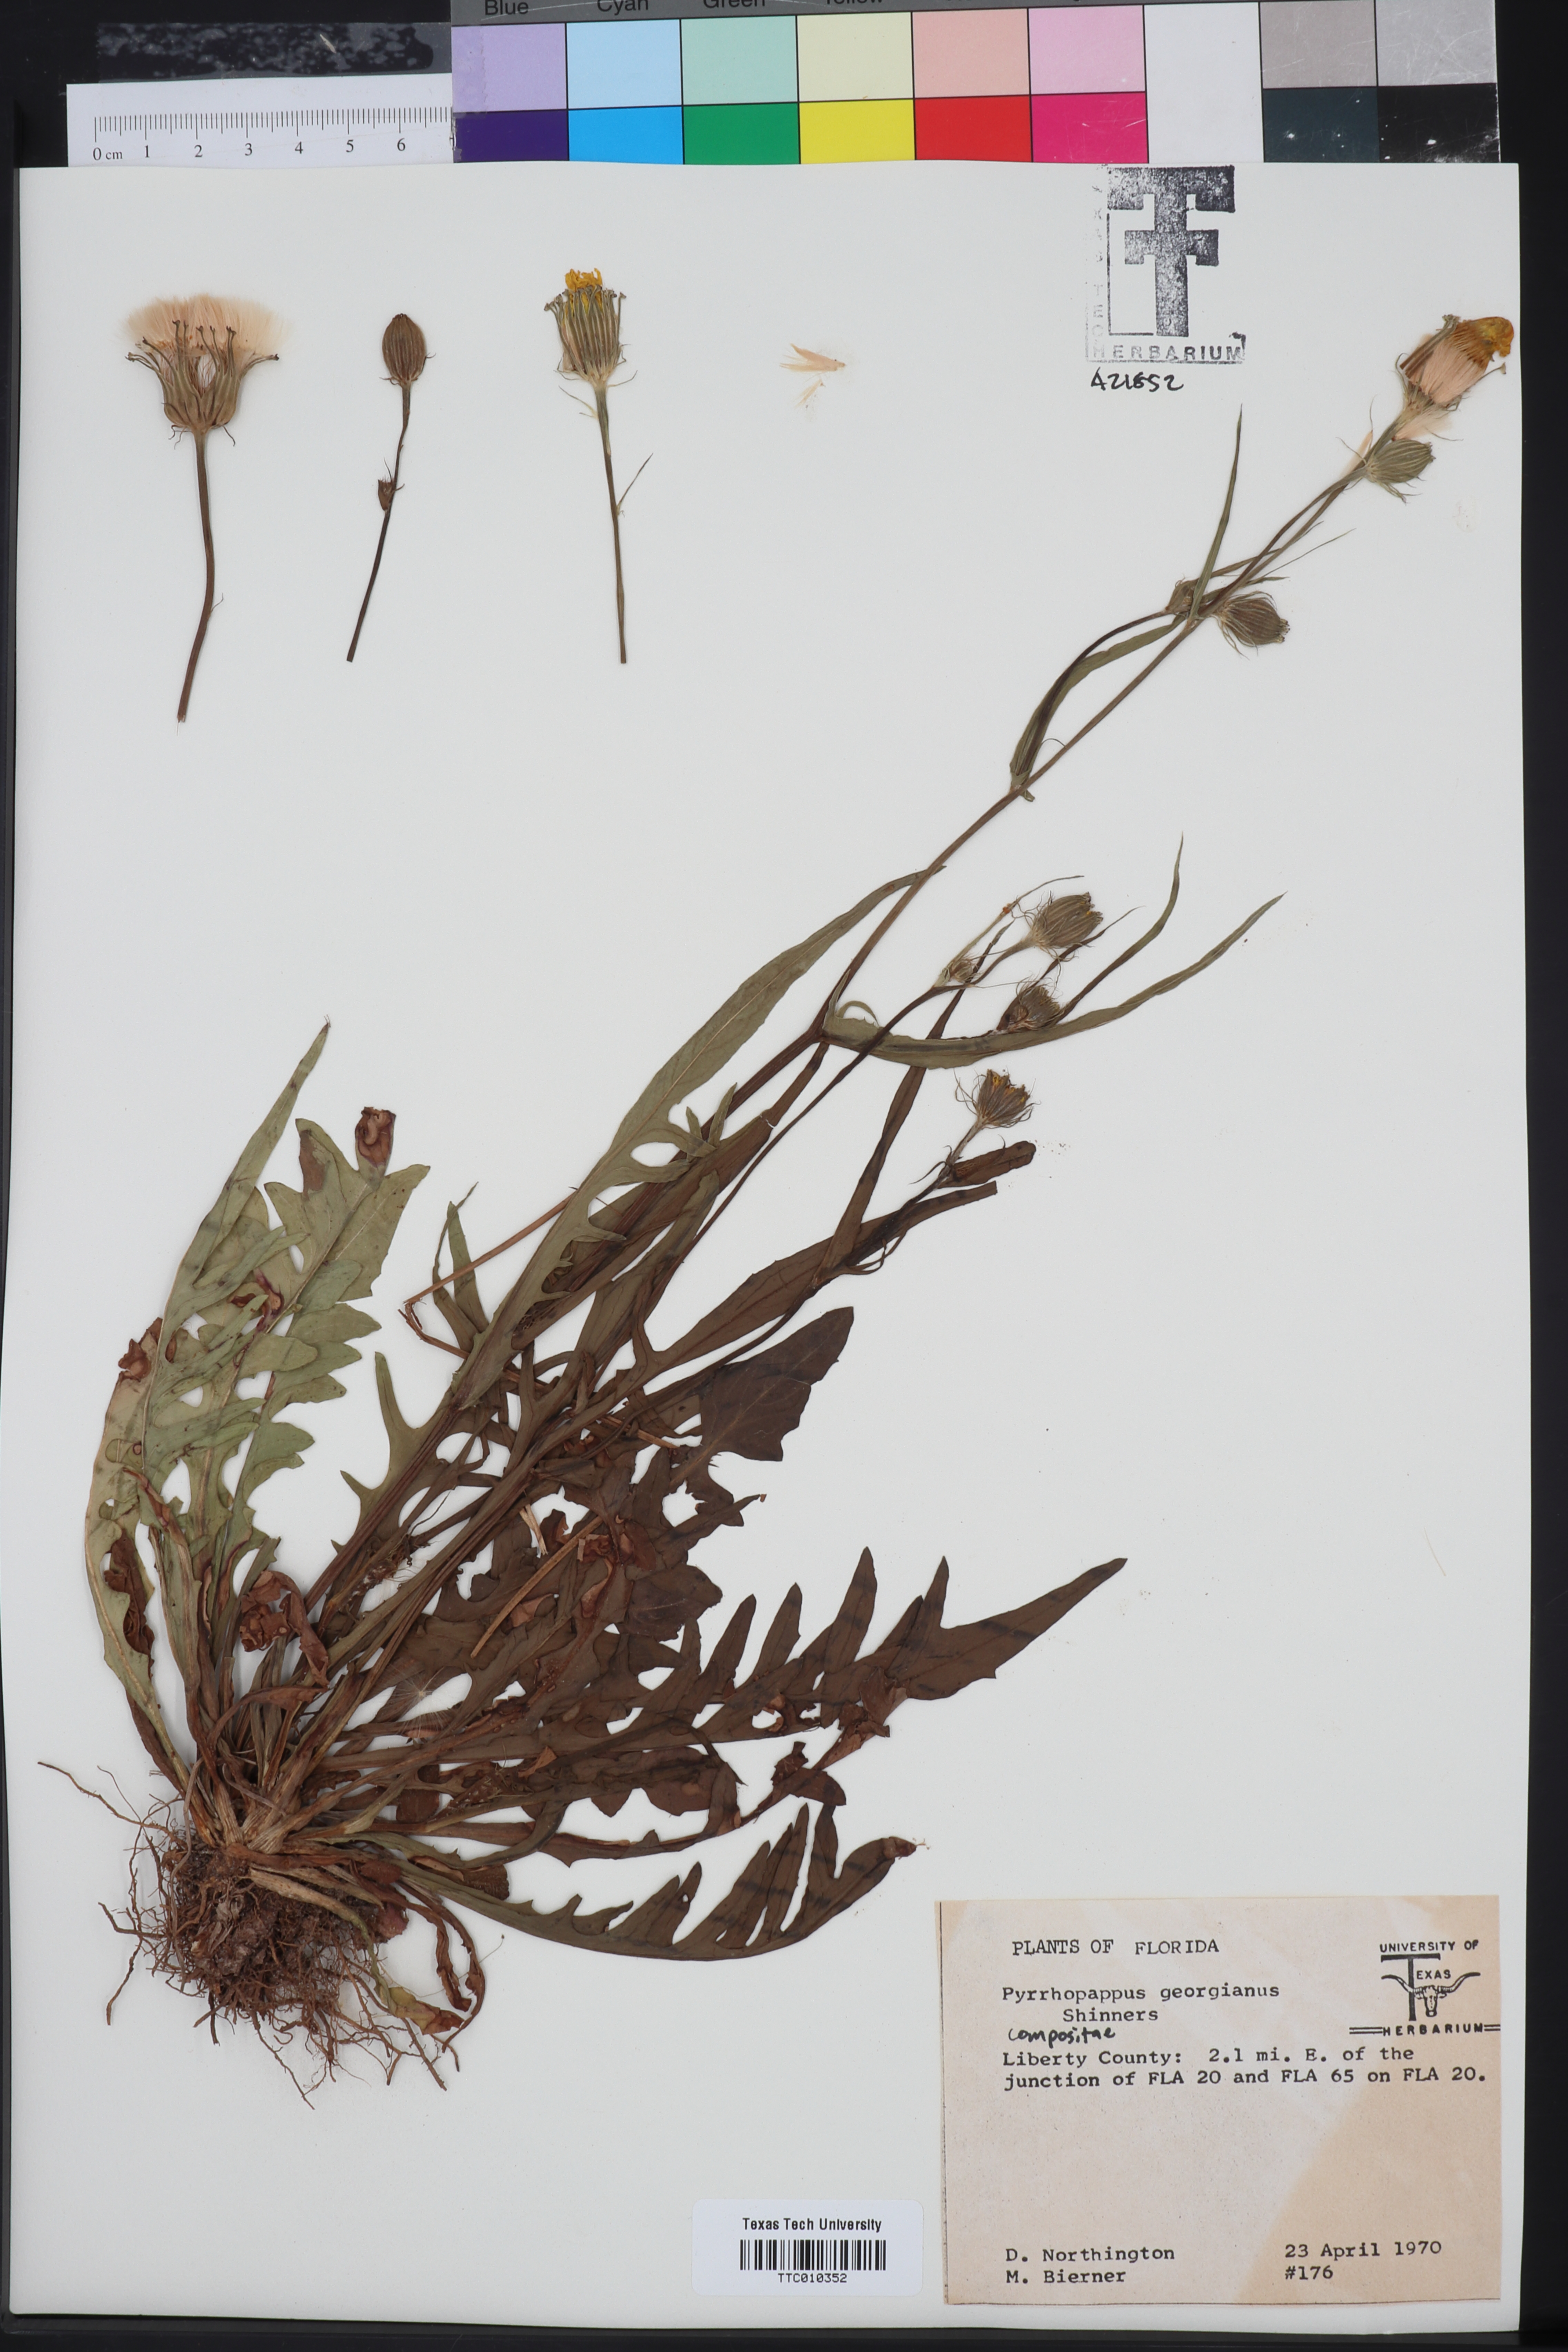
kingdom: Plantae
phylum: Tracheophyta
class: Magnoliopsida
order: Asterales
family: Asteraceae
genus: Pyrrhopappus
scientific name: Pyrrhopappus carolinianus
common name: Carolina desert-chicory
